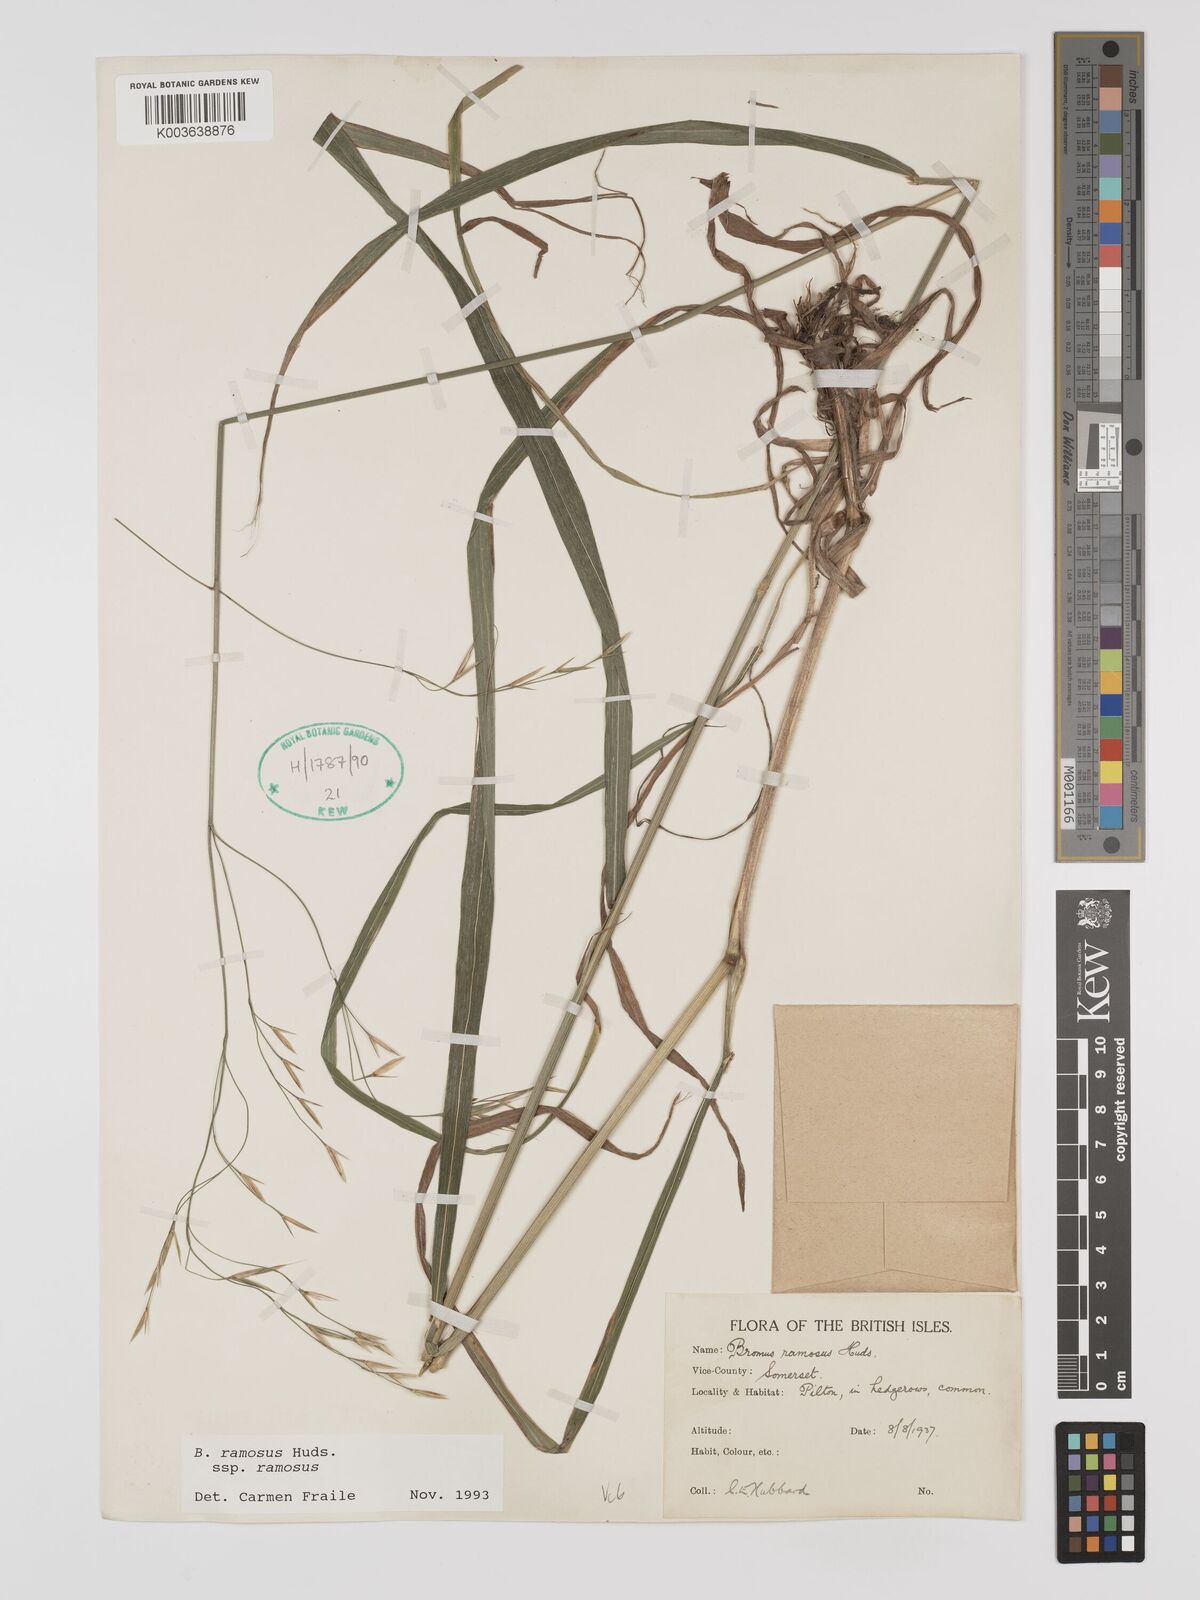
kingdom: Plantae
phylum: Tracheophyta
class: Liliopsida
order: Poales
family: Poaceae
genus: Brachypodium
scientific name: Brachypodium retusum
